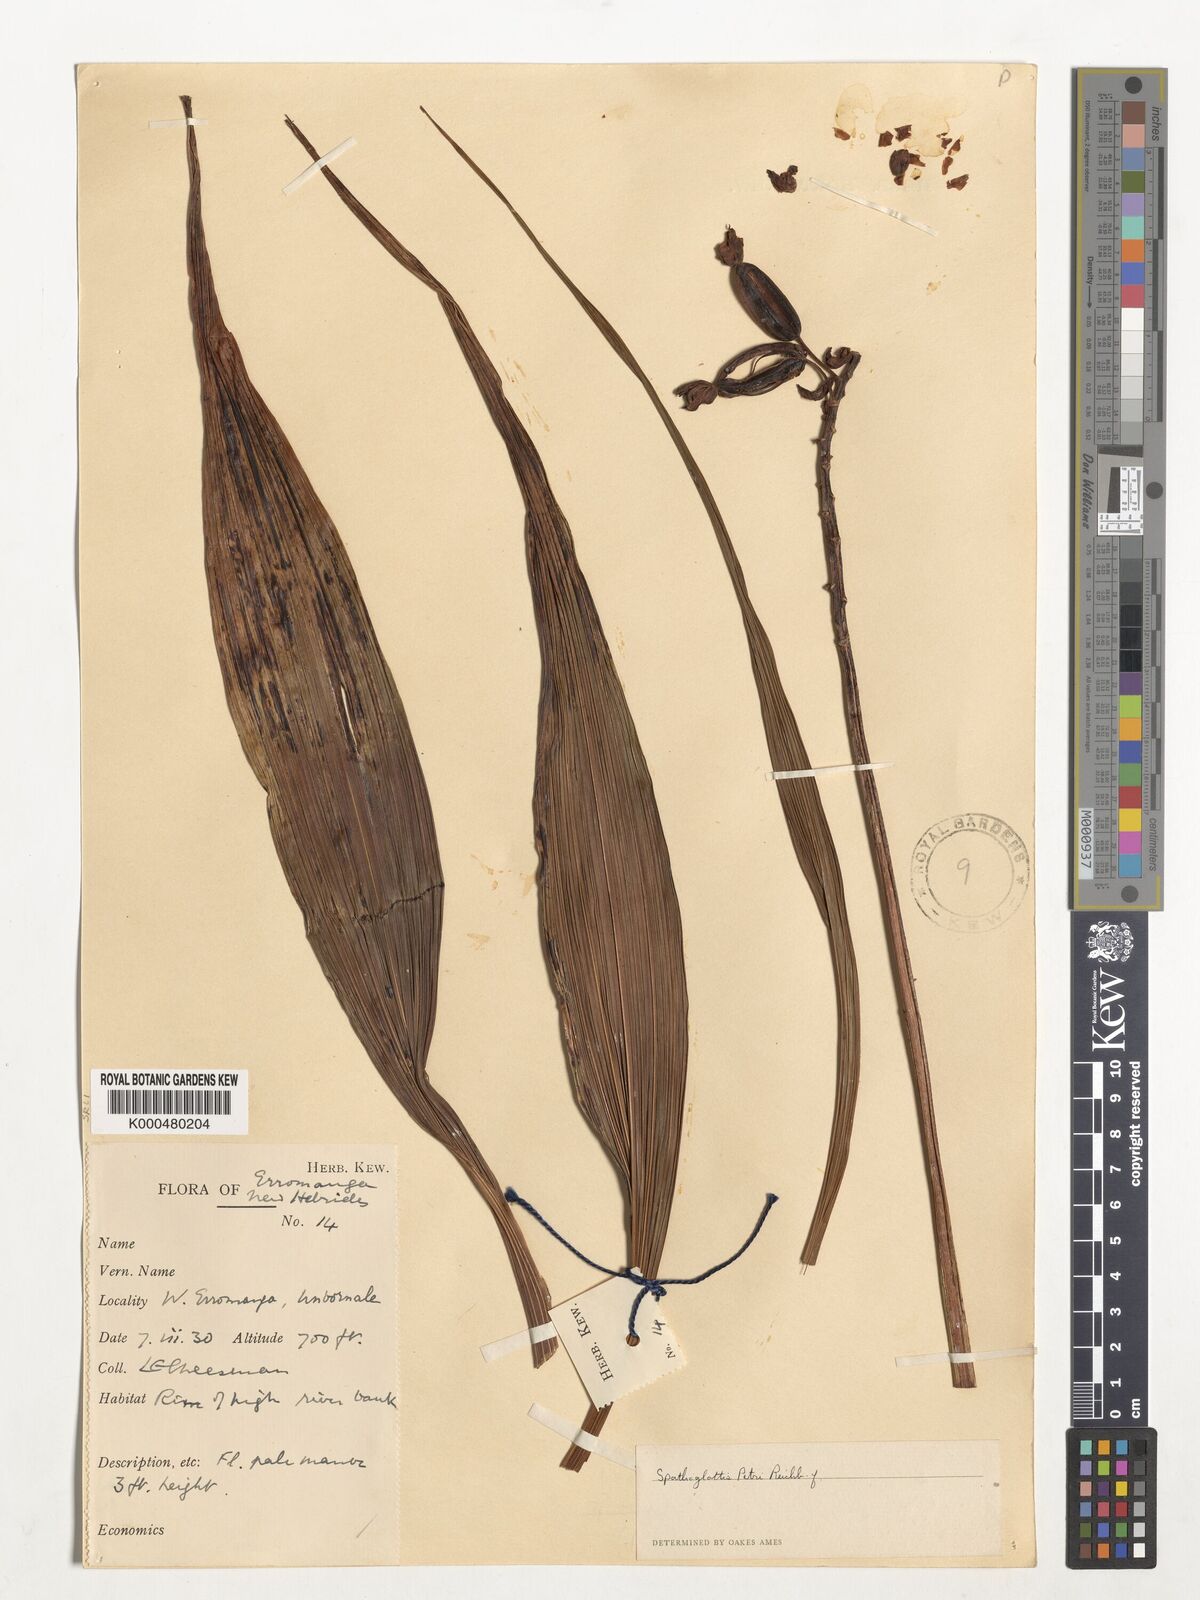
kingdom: Plantae
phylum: Tracheophyta
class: Liliopsida
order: Asparagales
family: Orchidaceae
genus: Spathoglottis
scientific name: Spathoglottis petri
